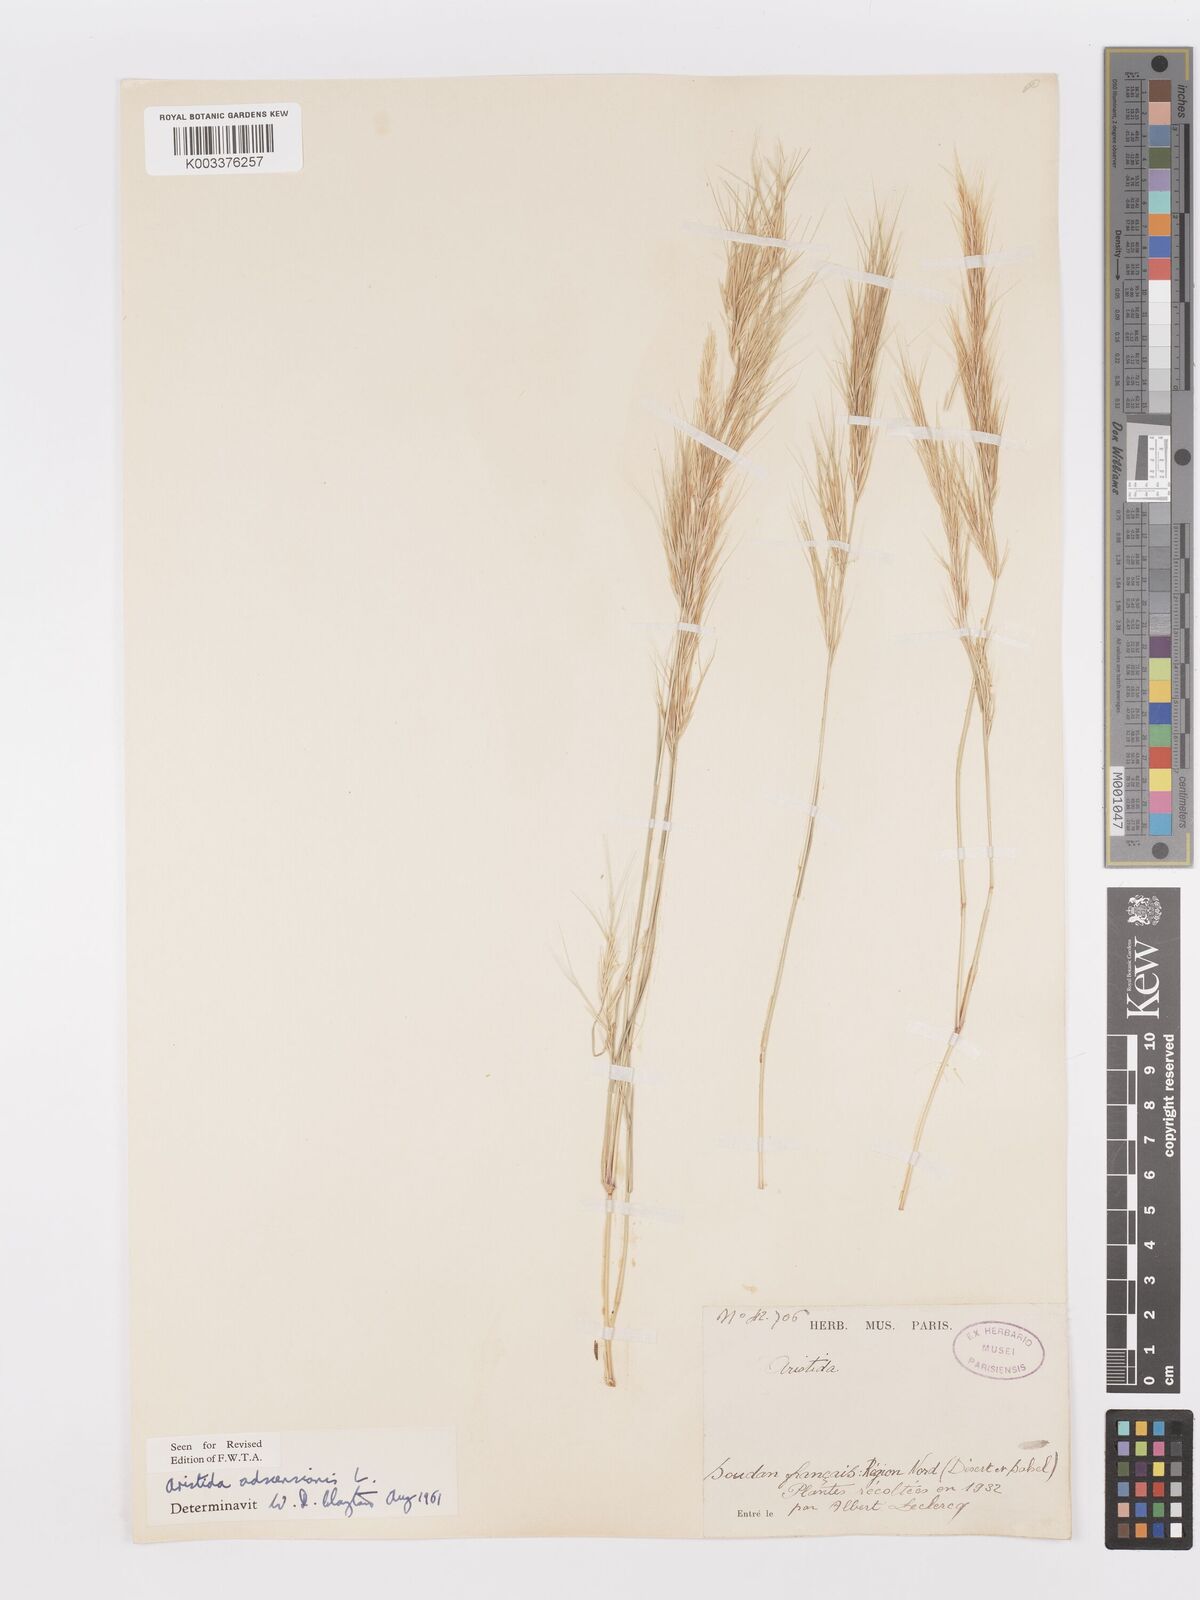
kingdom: Plantae
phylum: Tracheophyta
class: Liliopsida
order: Poales
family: Poaceae
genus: Aristida
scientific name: Aristida adscensionis
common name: Sixweeks threeawn
